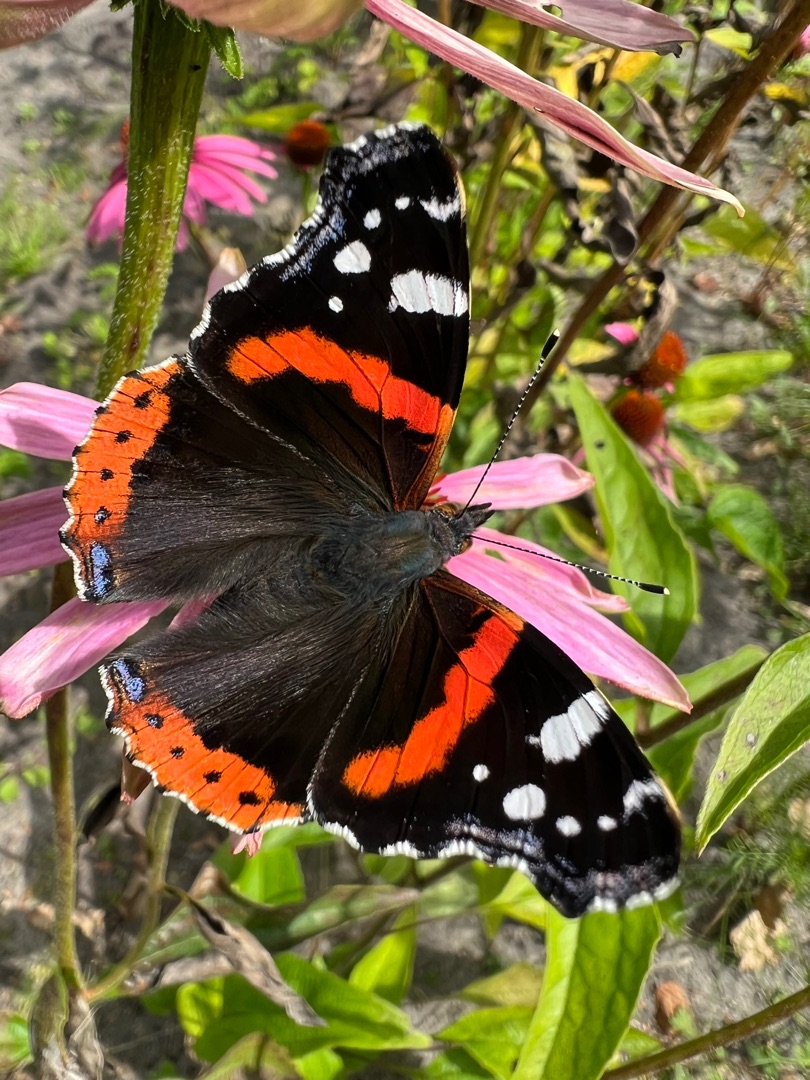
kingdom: Animalia
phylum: Arthropoda
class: Insecta
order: Lepidoptera
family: Nymphalidae
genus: Vanessa
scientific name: Vanessa atalanta
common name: Admiral
